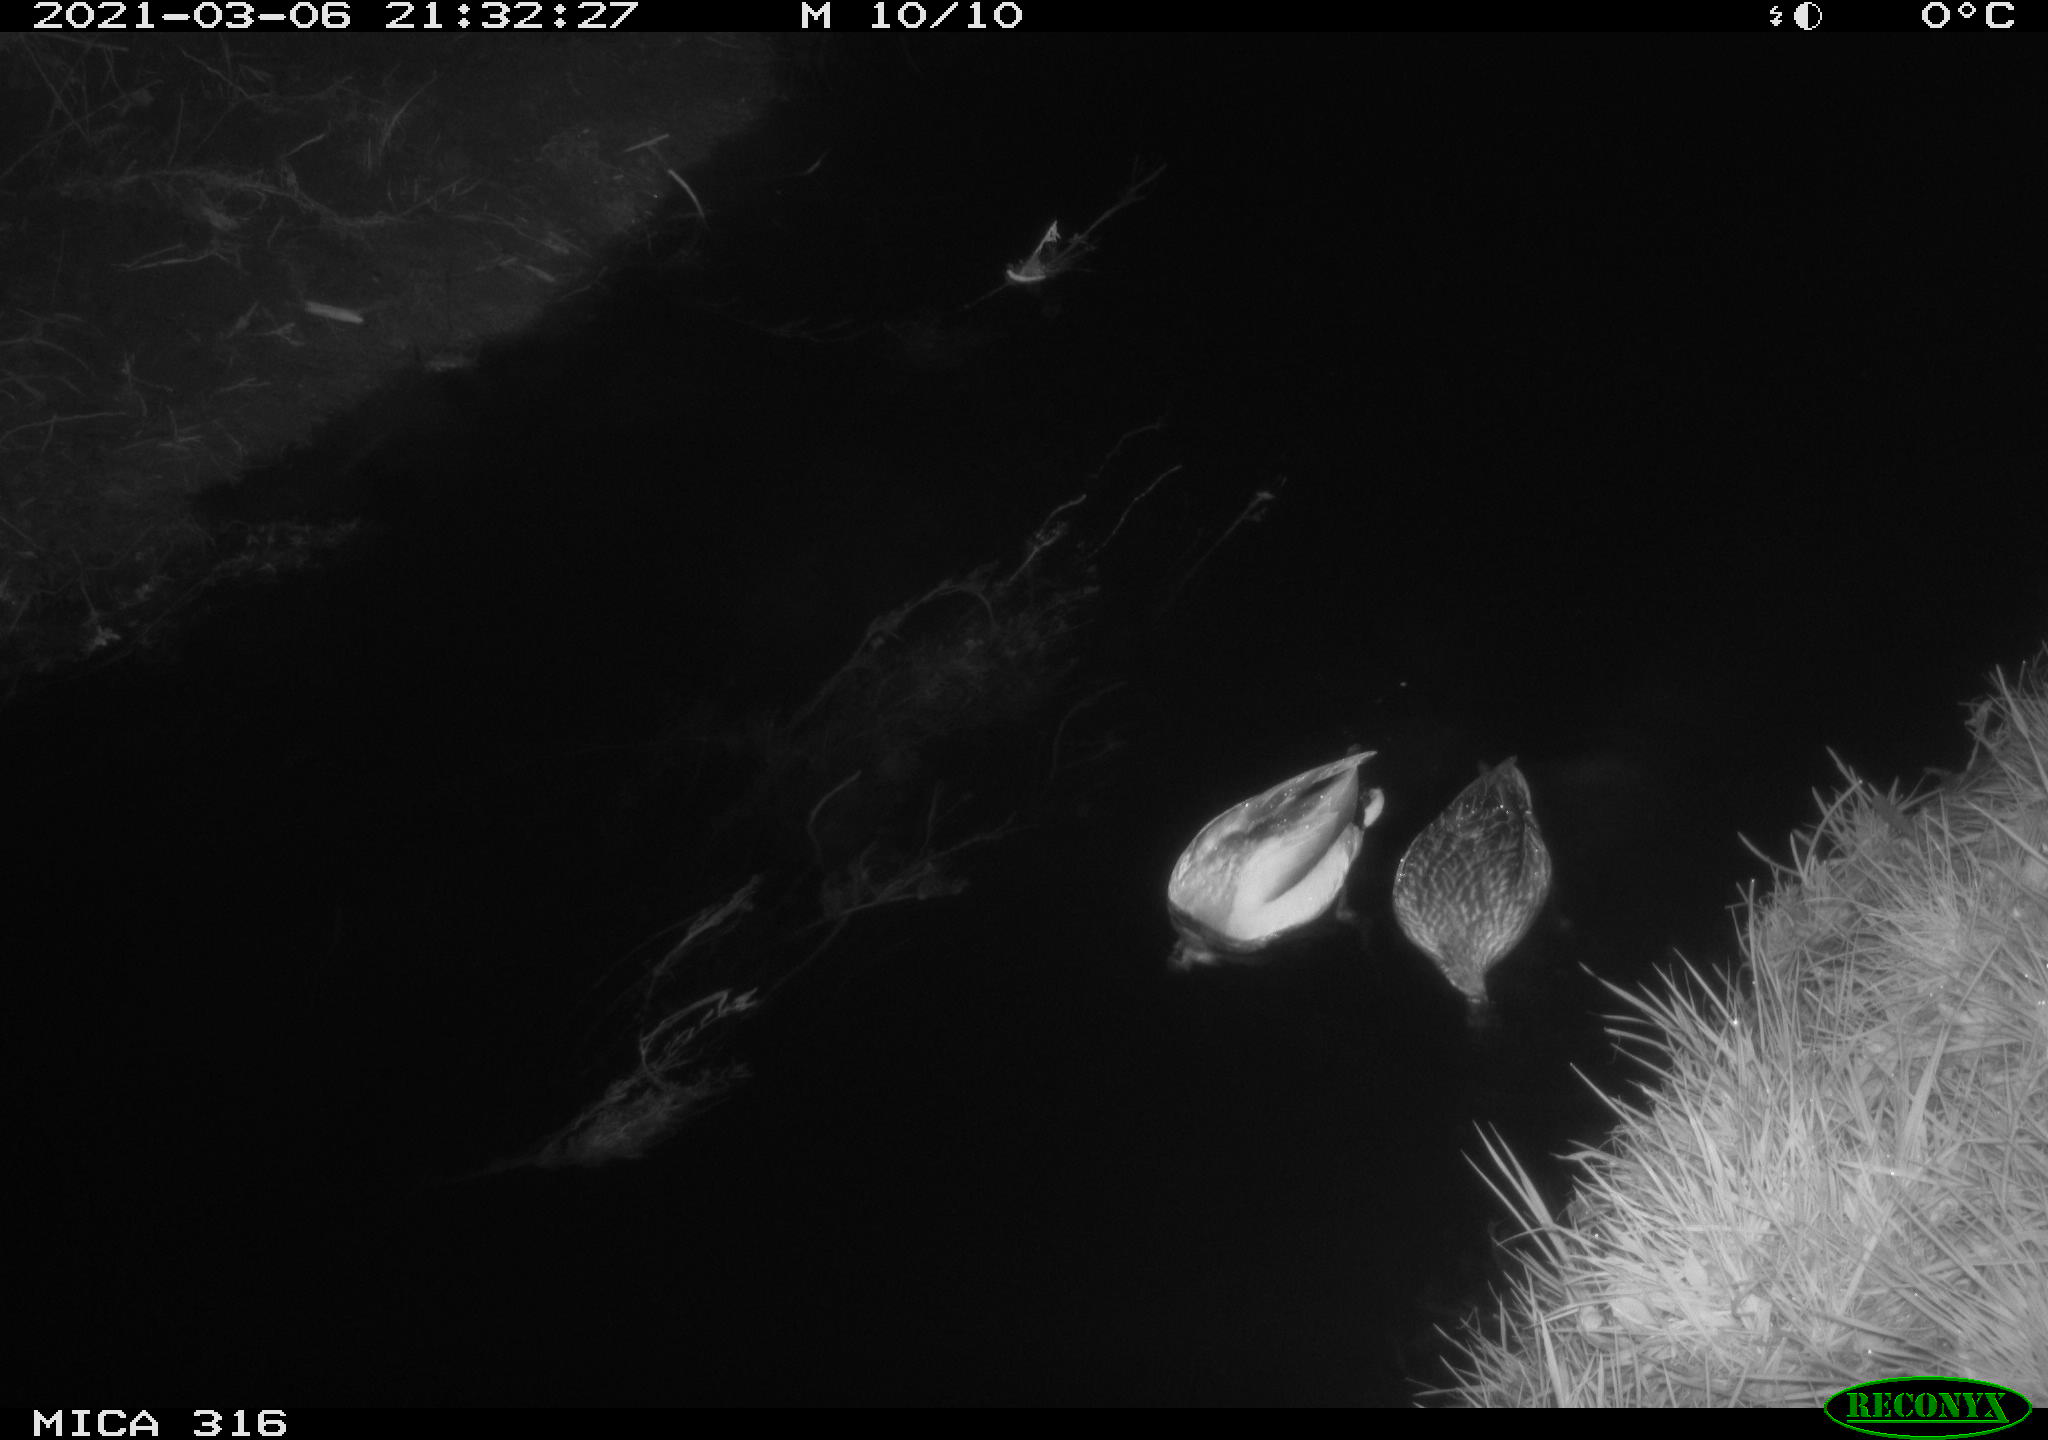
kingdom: Animalia
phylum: Chordata
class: Aves
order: Anseriformes
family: Anatidae
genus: Anas
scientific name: Anas platyrhynchos
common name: Mallard
